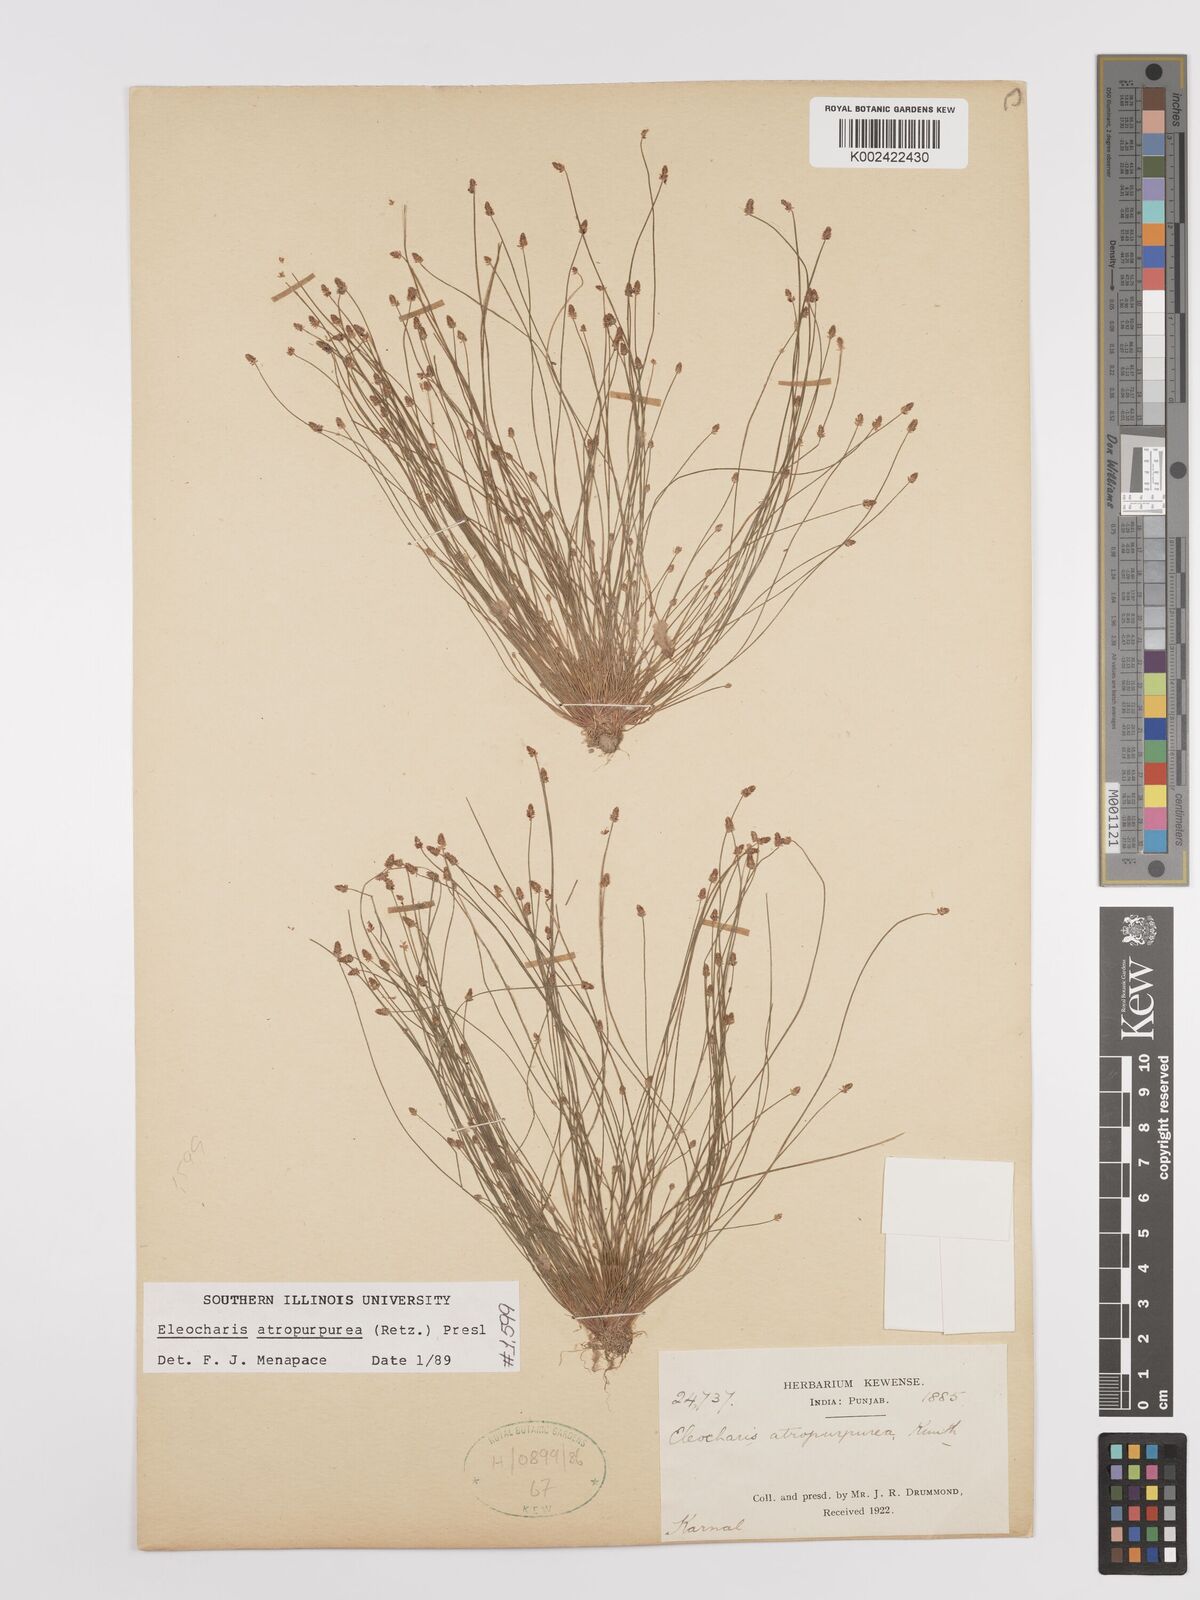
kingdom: Plantae
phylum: Tracheophyta
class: Liliopsida
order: Poales
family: Cyperaceae
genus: Eleocharis
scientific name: Eleocharis atropurpurea
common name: Purple spikerush
